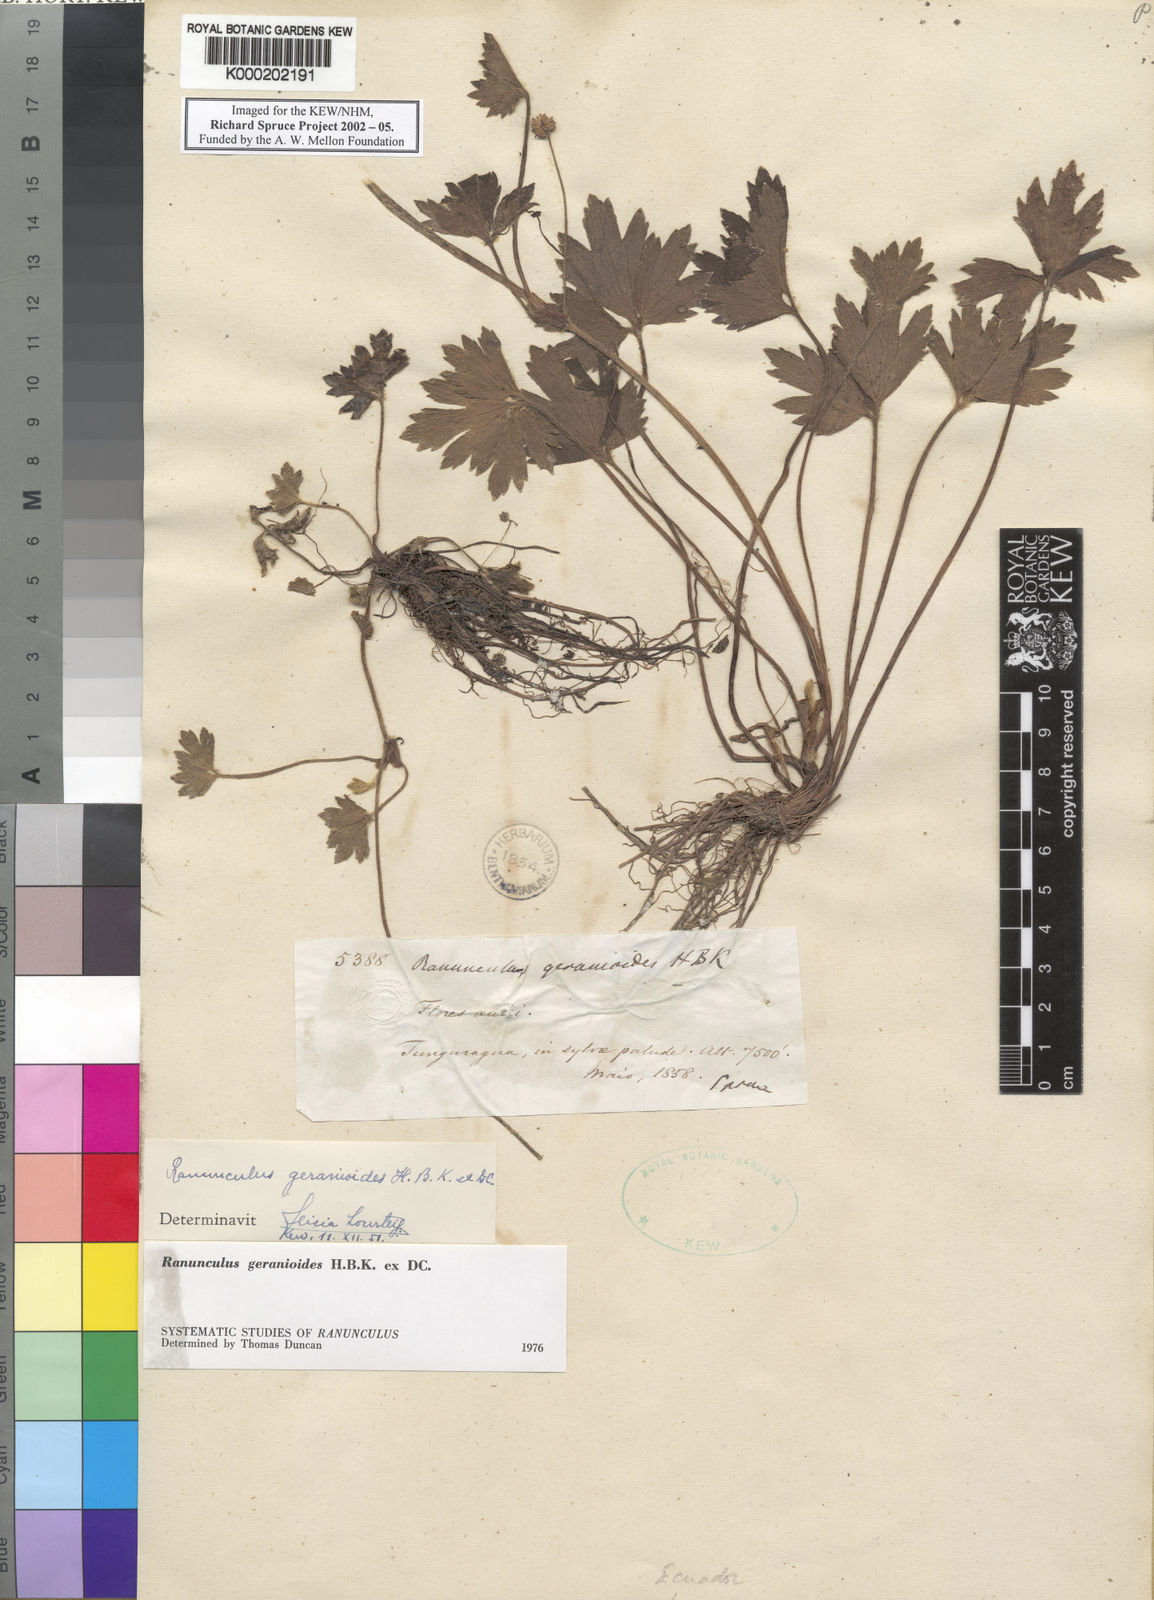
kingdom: Plantae
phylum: Tracheophyta
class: Magnoliopsida
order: Ranunculales
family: Ranunculaceae
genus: Ranunculus
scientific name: Ranunculus geranioides
